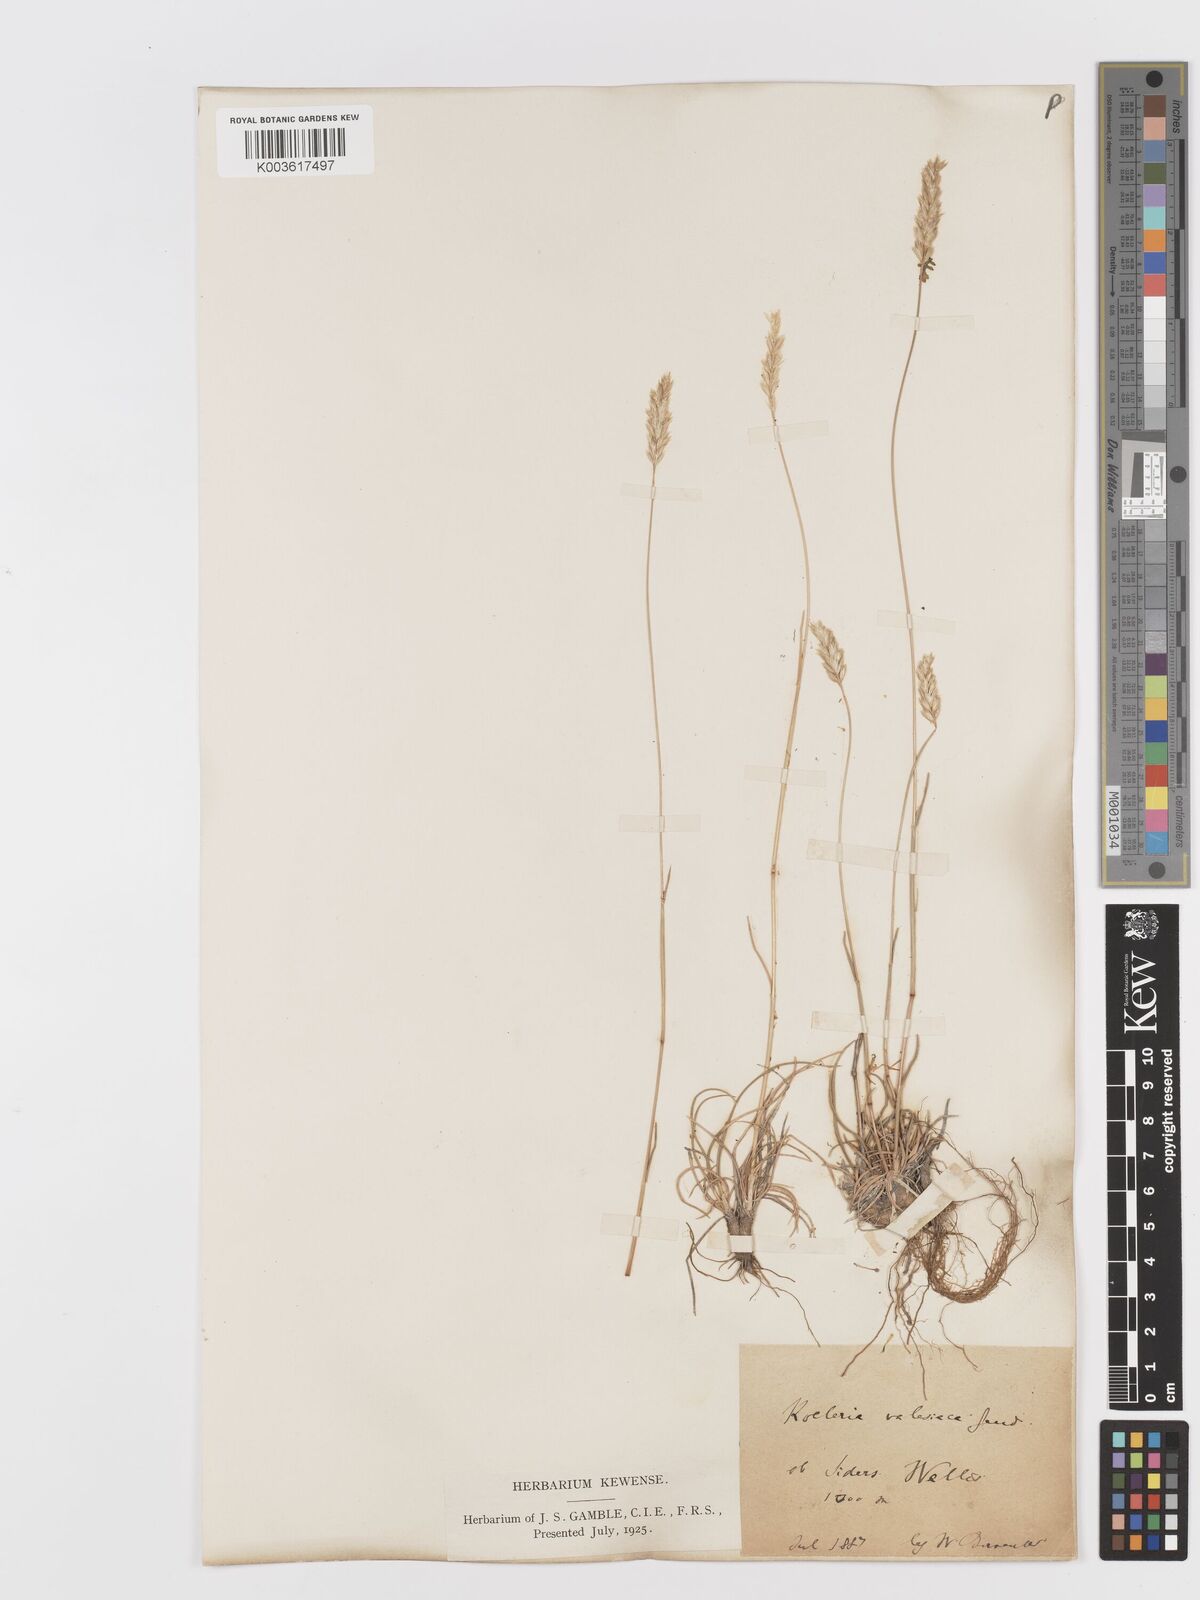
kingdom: Plantae
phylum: Tracheophyta
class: Liliopsida
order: Poales
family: Poaceae
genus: Koeleria
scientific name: Koeleria
